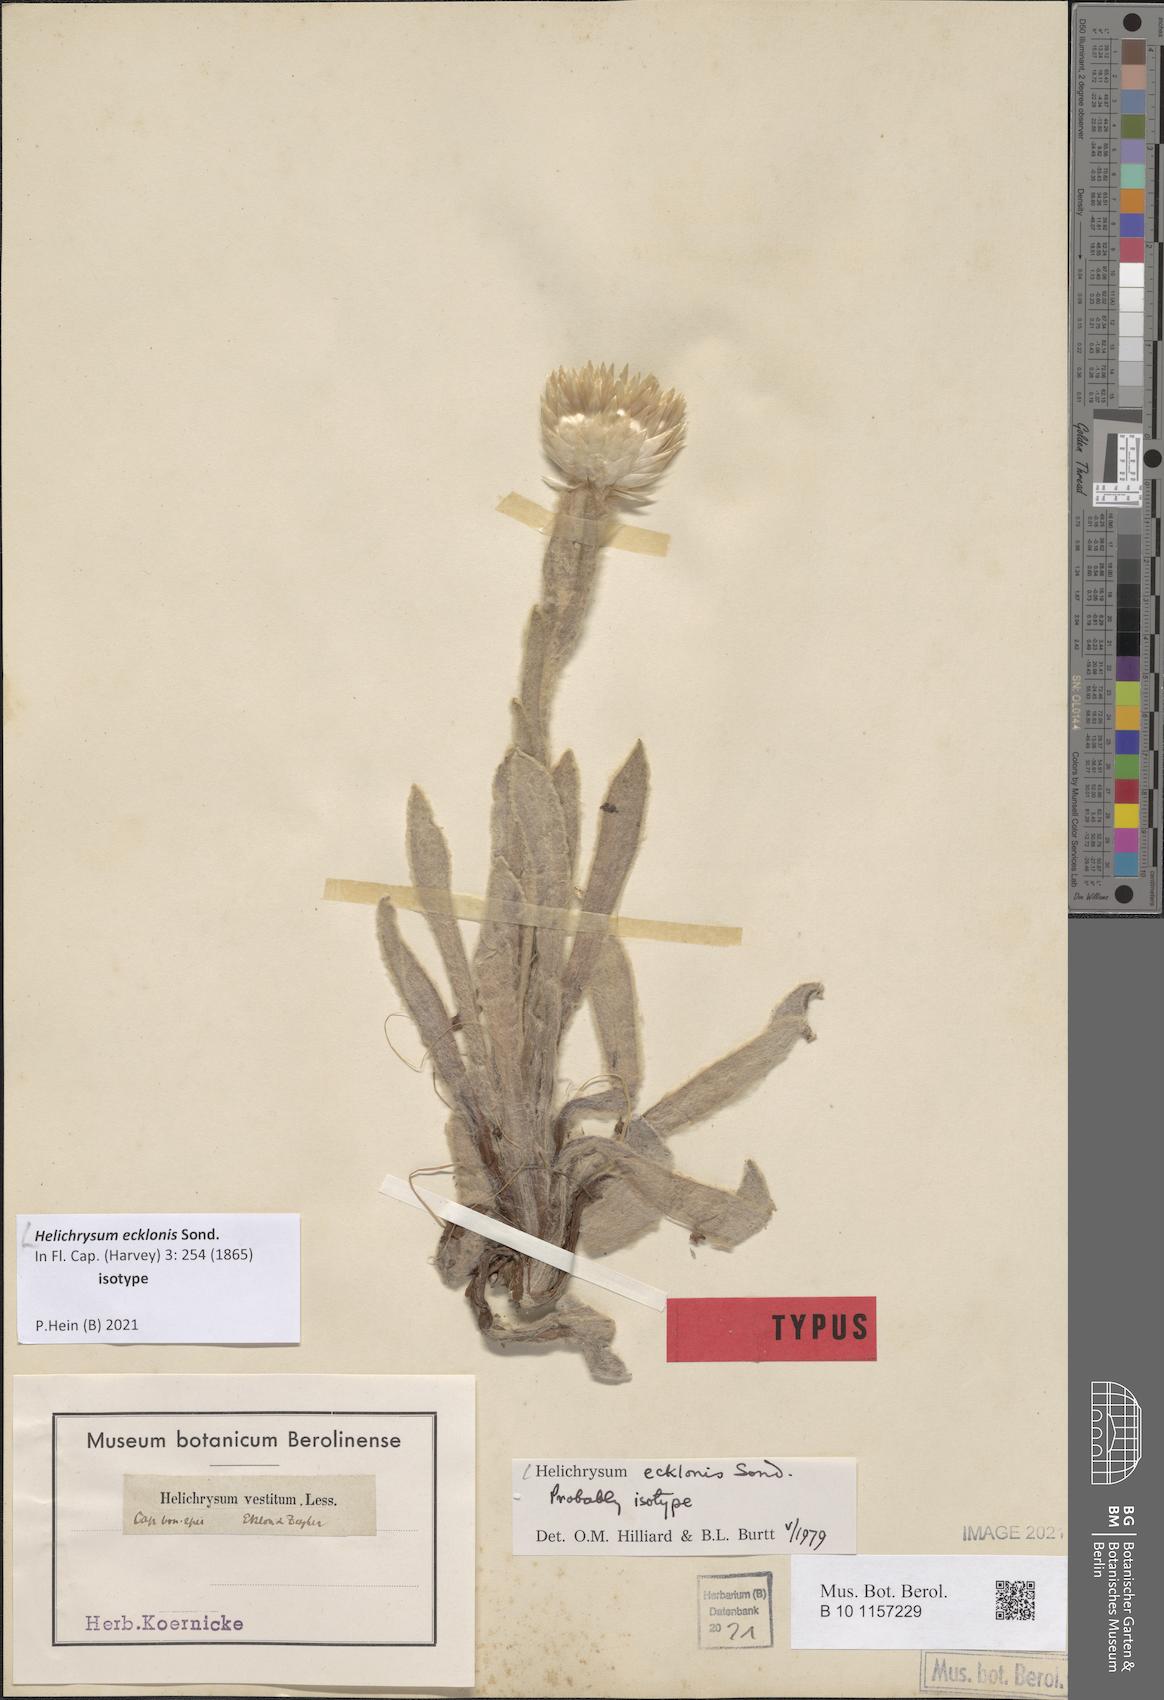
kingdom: Plantae
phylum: Tracheophyta
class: Magnoliopsida
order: Asterales
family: Asteraceae
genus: Helichrysum
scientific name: Helichrysum ecklonis
